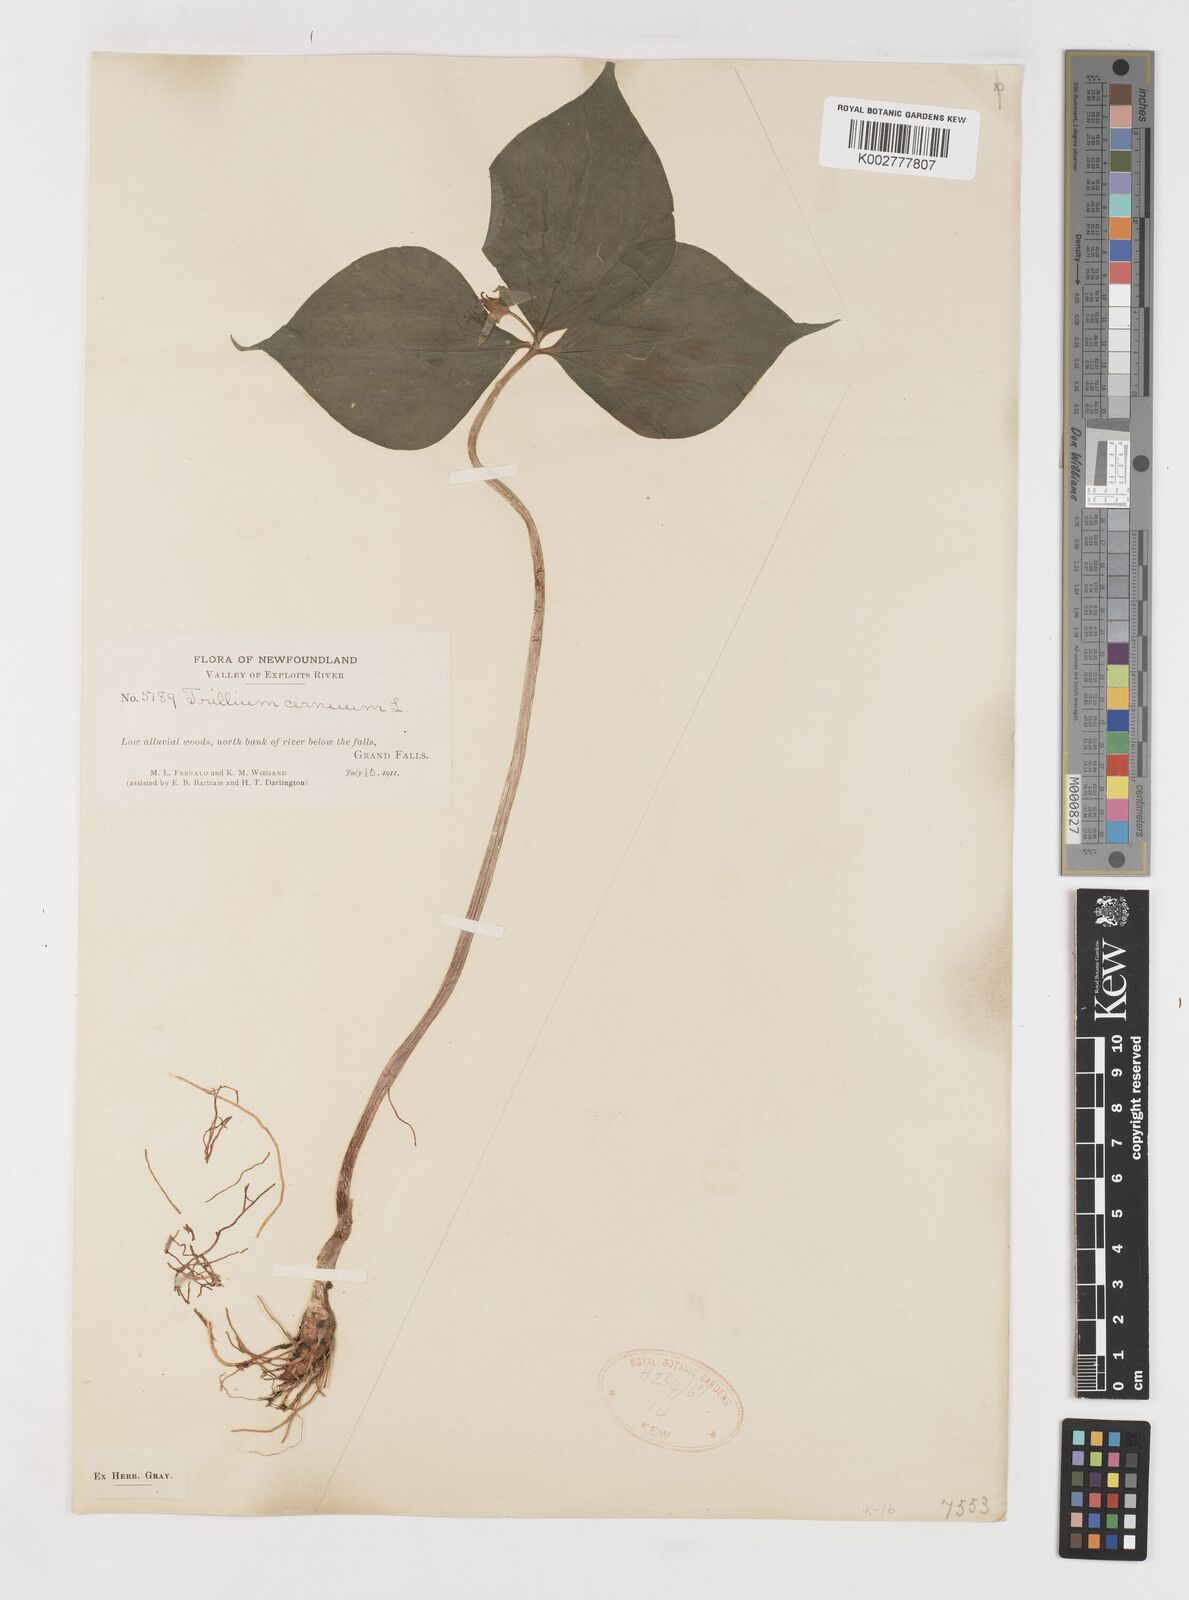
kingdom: Plantae
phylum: Tracheophyta
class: Liliopsida
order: Liliales
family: Melanthiaceae
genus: Trillium
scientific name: Trillium cernuum
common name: Nodding trillium
